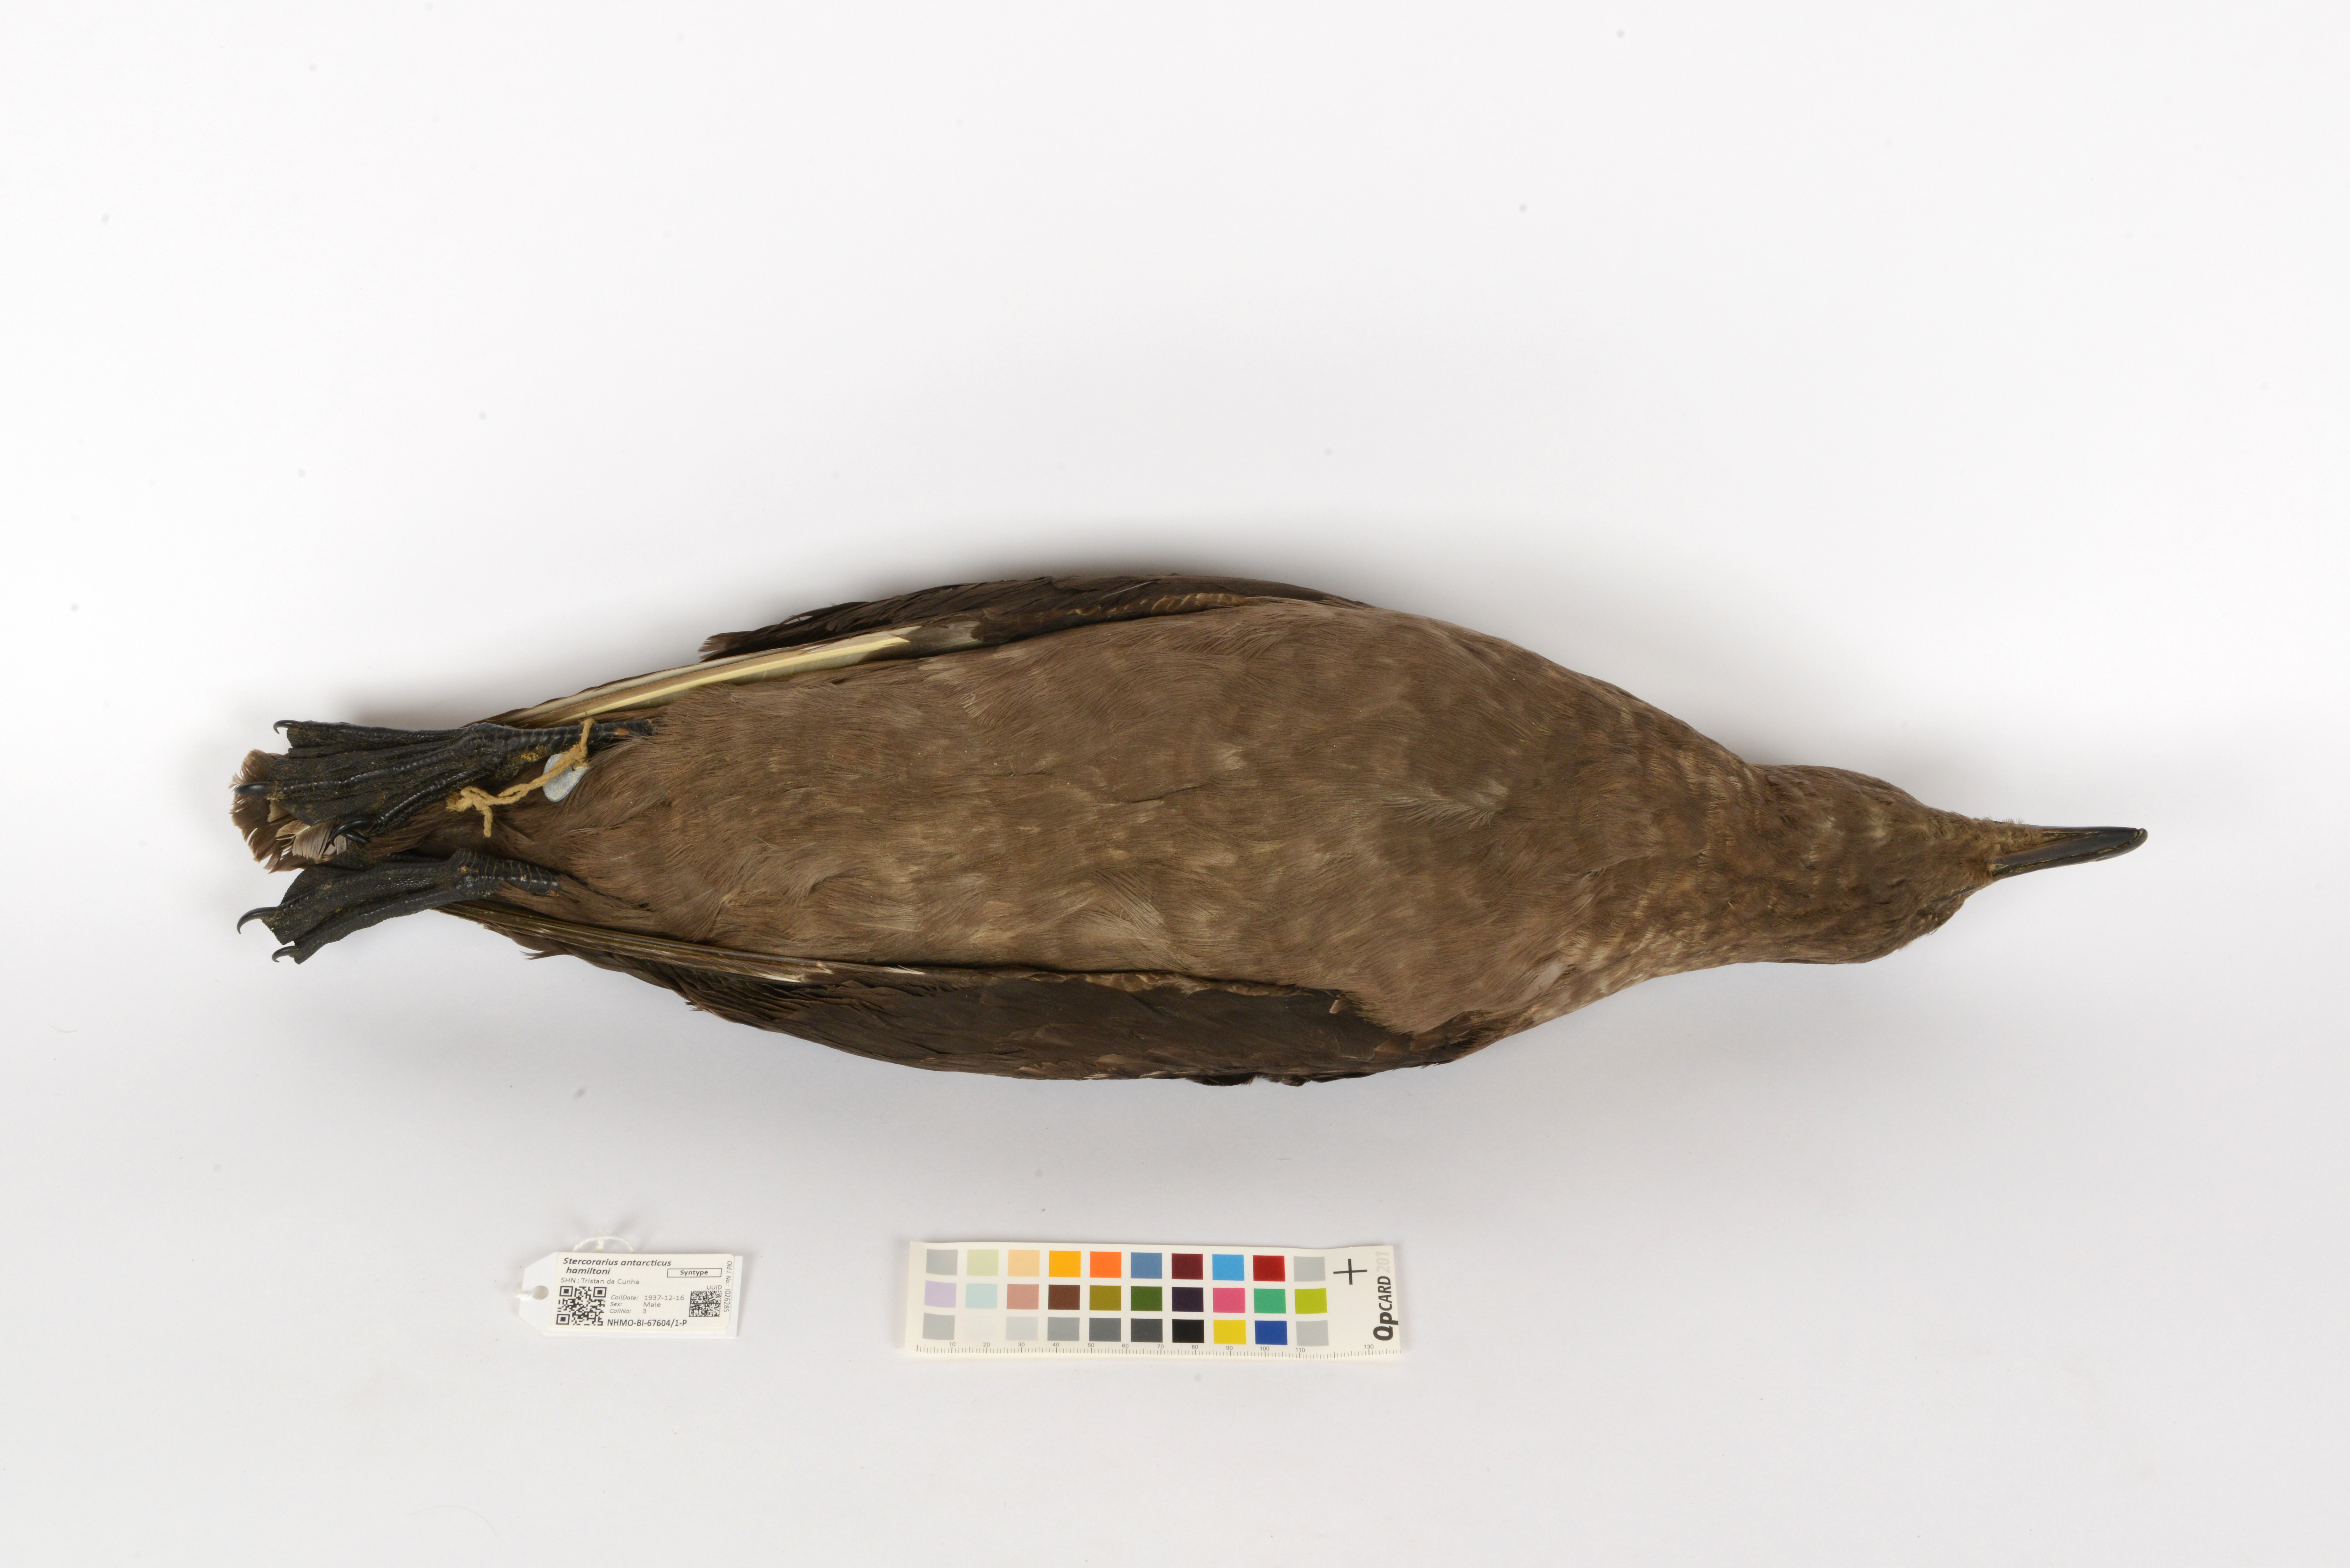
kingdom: Animalia
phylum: Chordata
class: Aves
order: Charadriiformes
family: Stercorariidae
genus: Stercorarius
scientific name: Stercorarius antarcticus
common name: Brown skua
